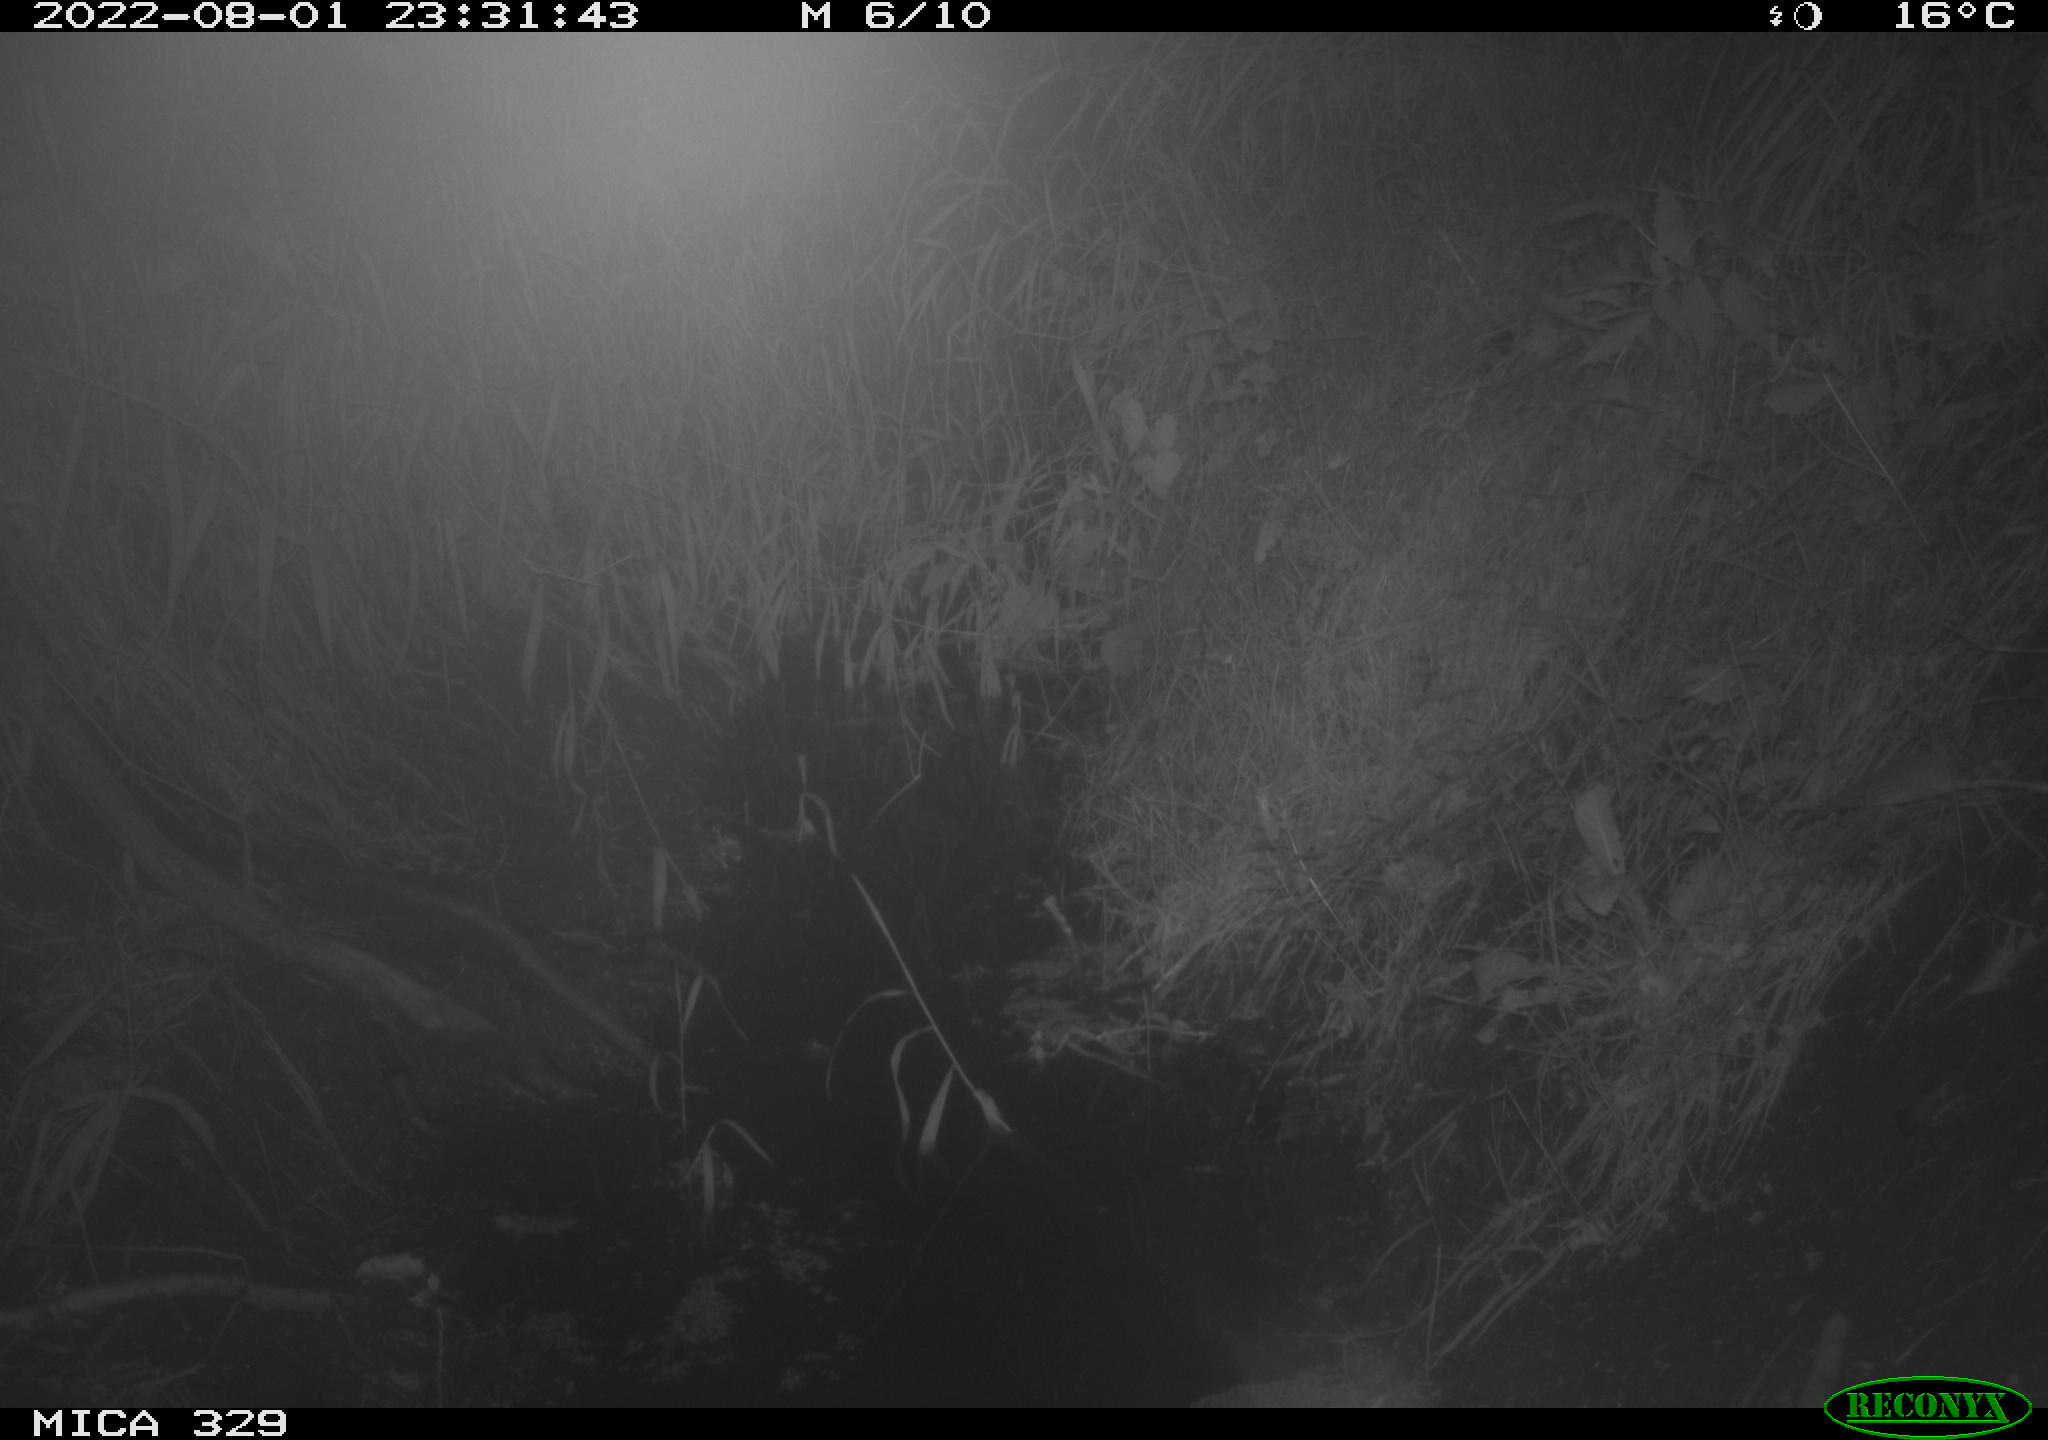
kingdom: Animalia
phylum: Chordata
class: Mammalia
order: Rodentia
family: Muridae
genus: Rattus
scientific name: Rattus norvegicus
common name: Brown rat
